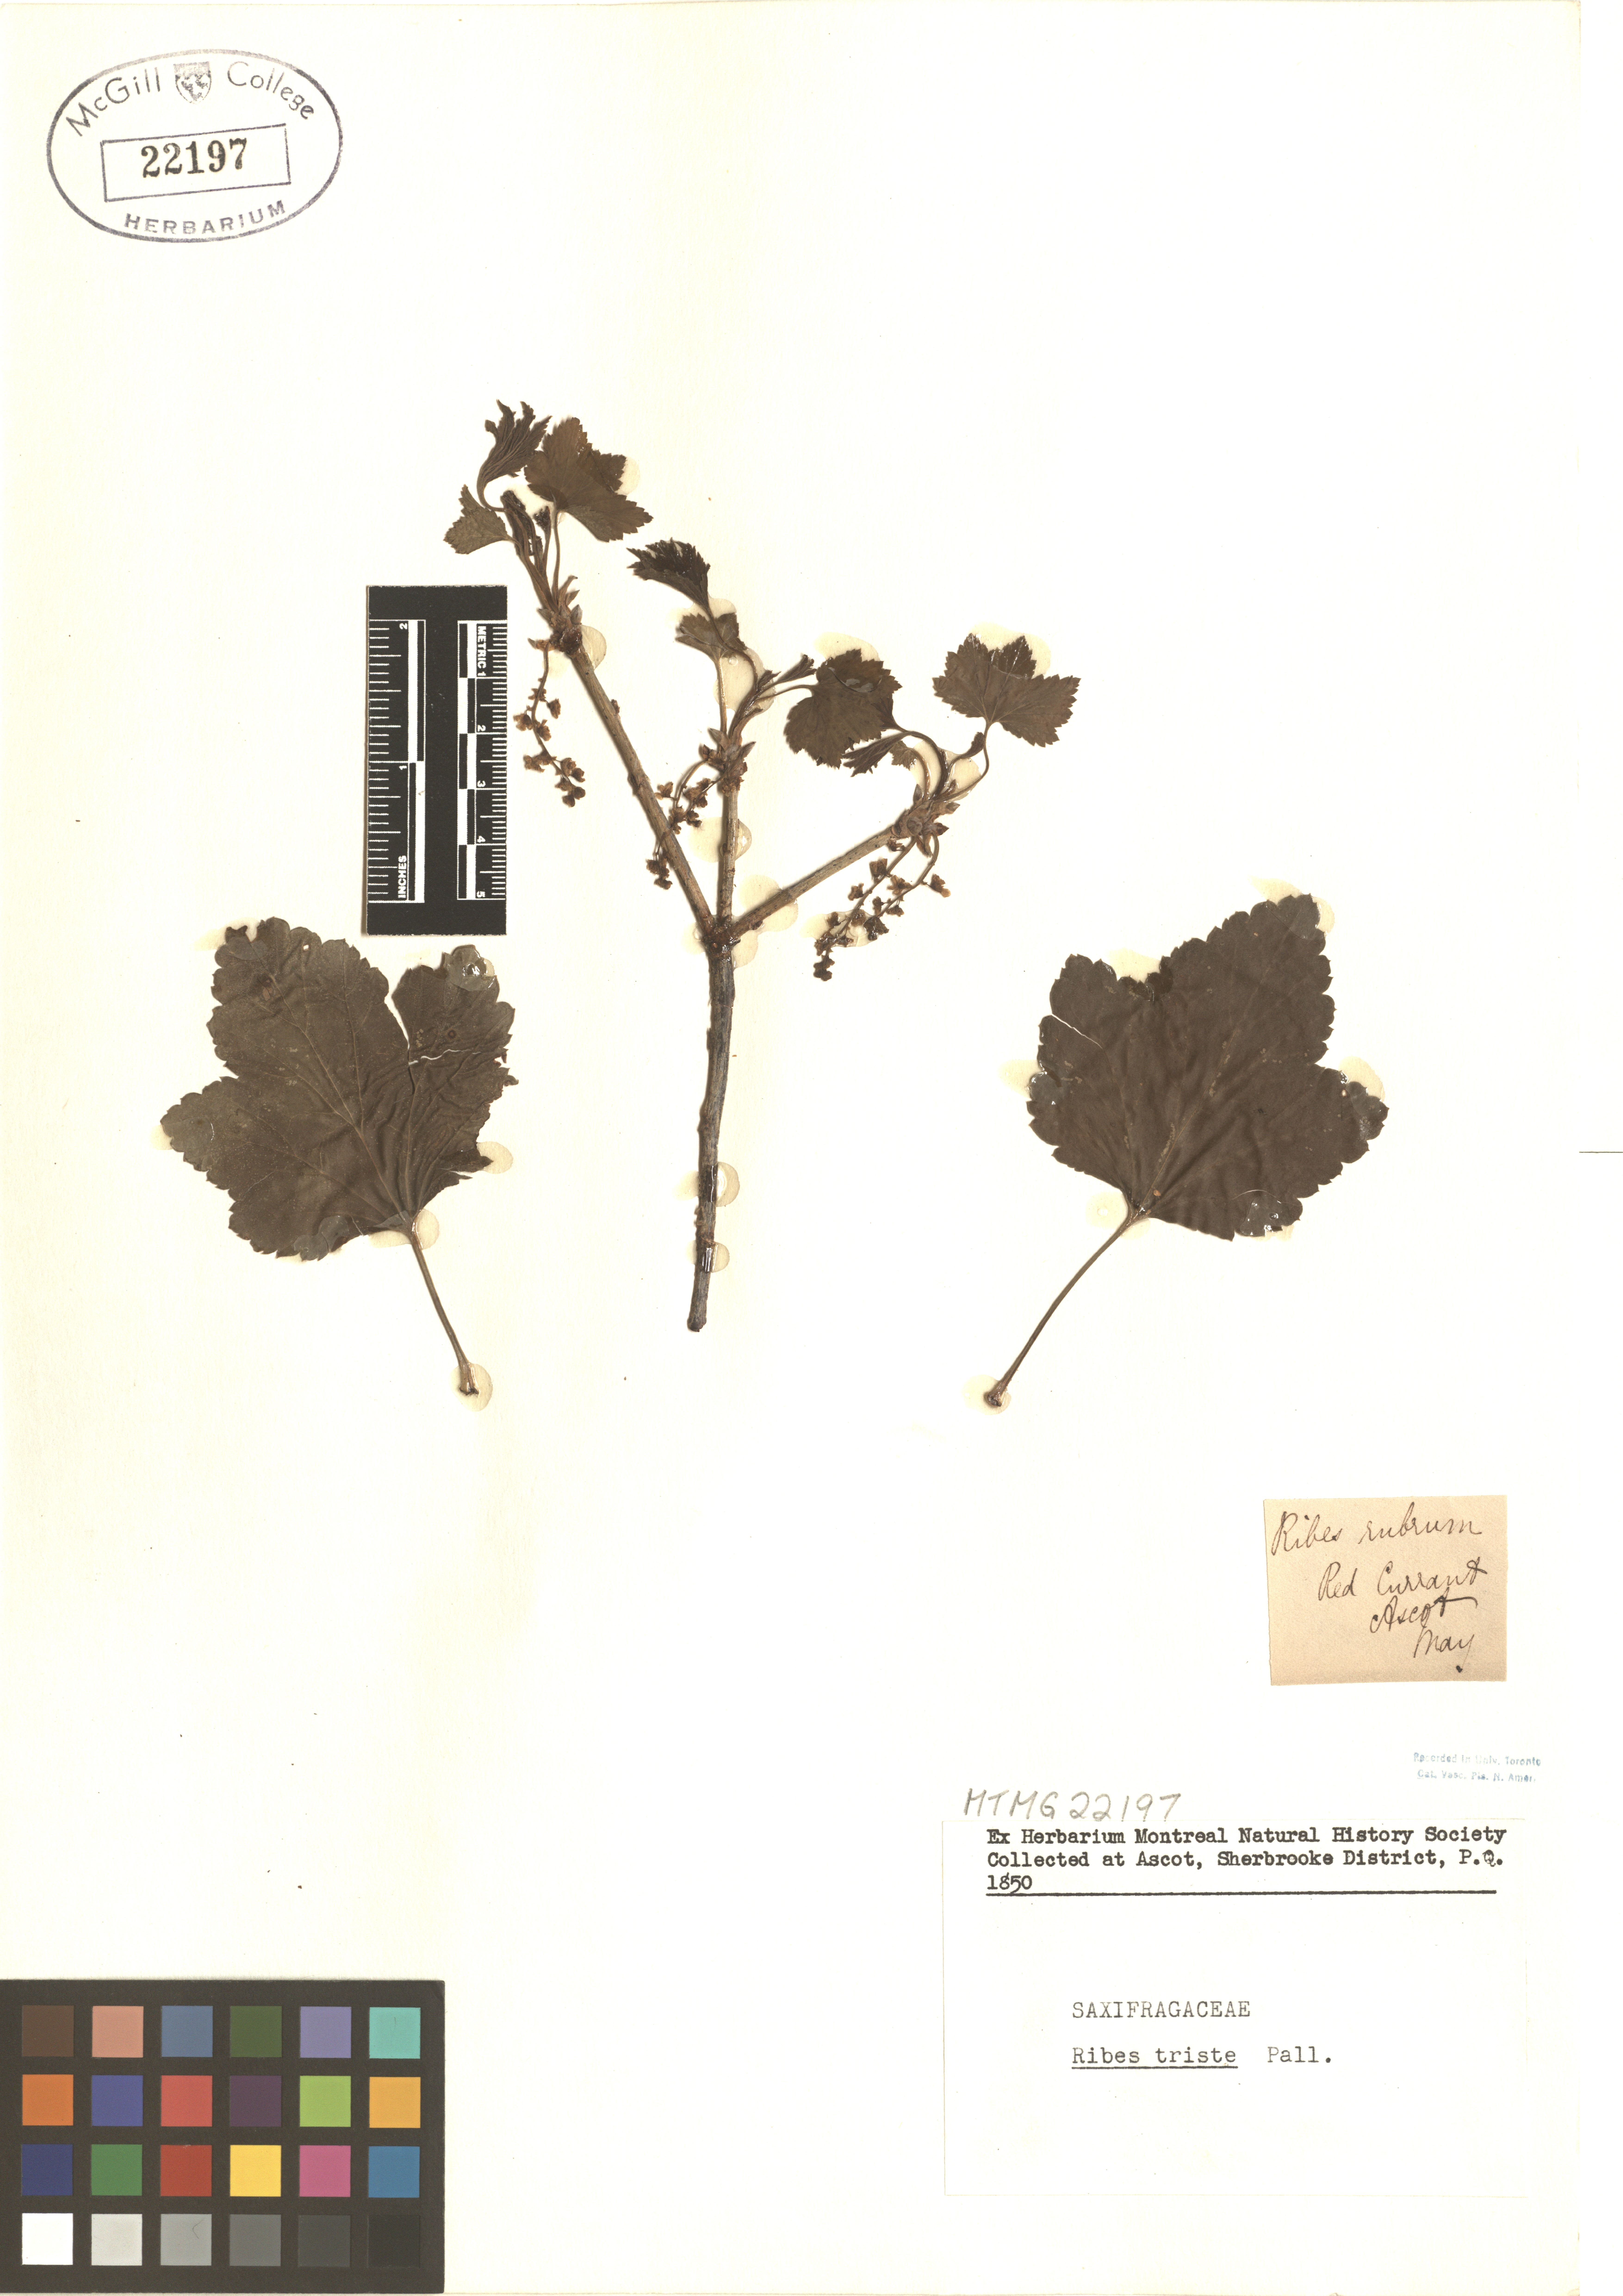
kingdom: Plantae
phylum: Tracheophyta
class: Magnoliopsida
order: Saxifragales
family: Grossulariaceae
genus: Ribes
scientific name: Ribes triste
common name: Swamp red currant
